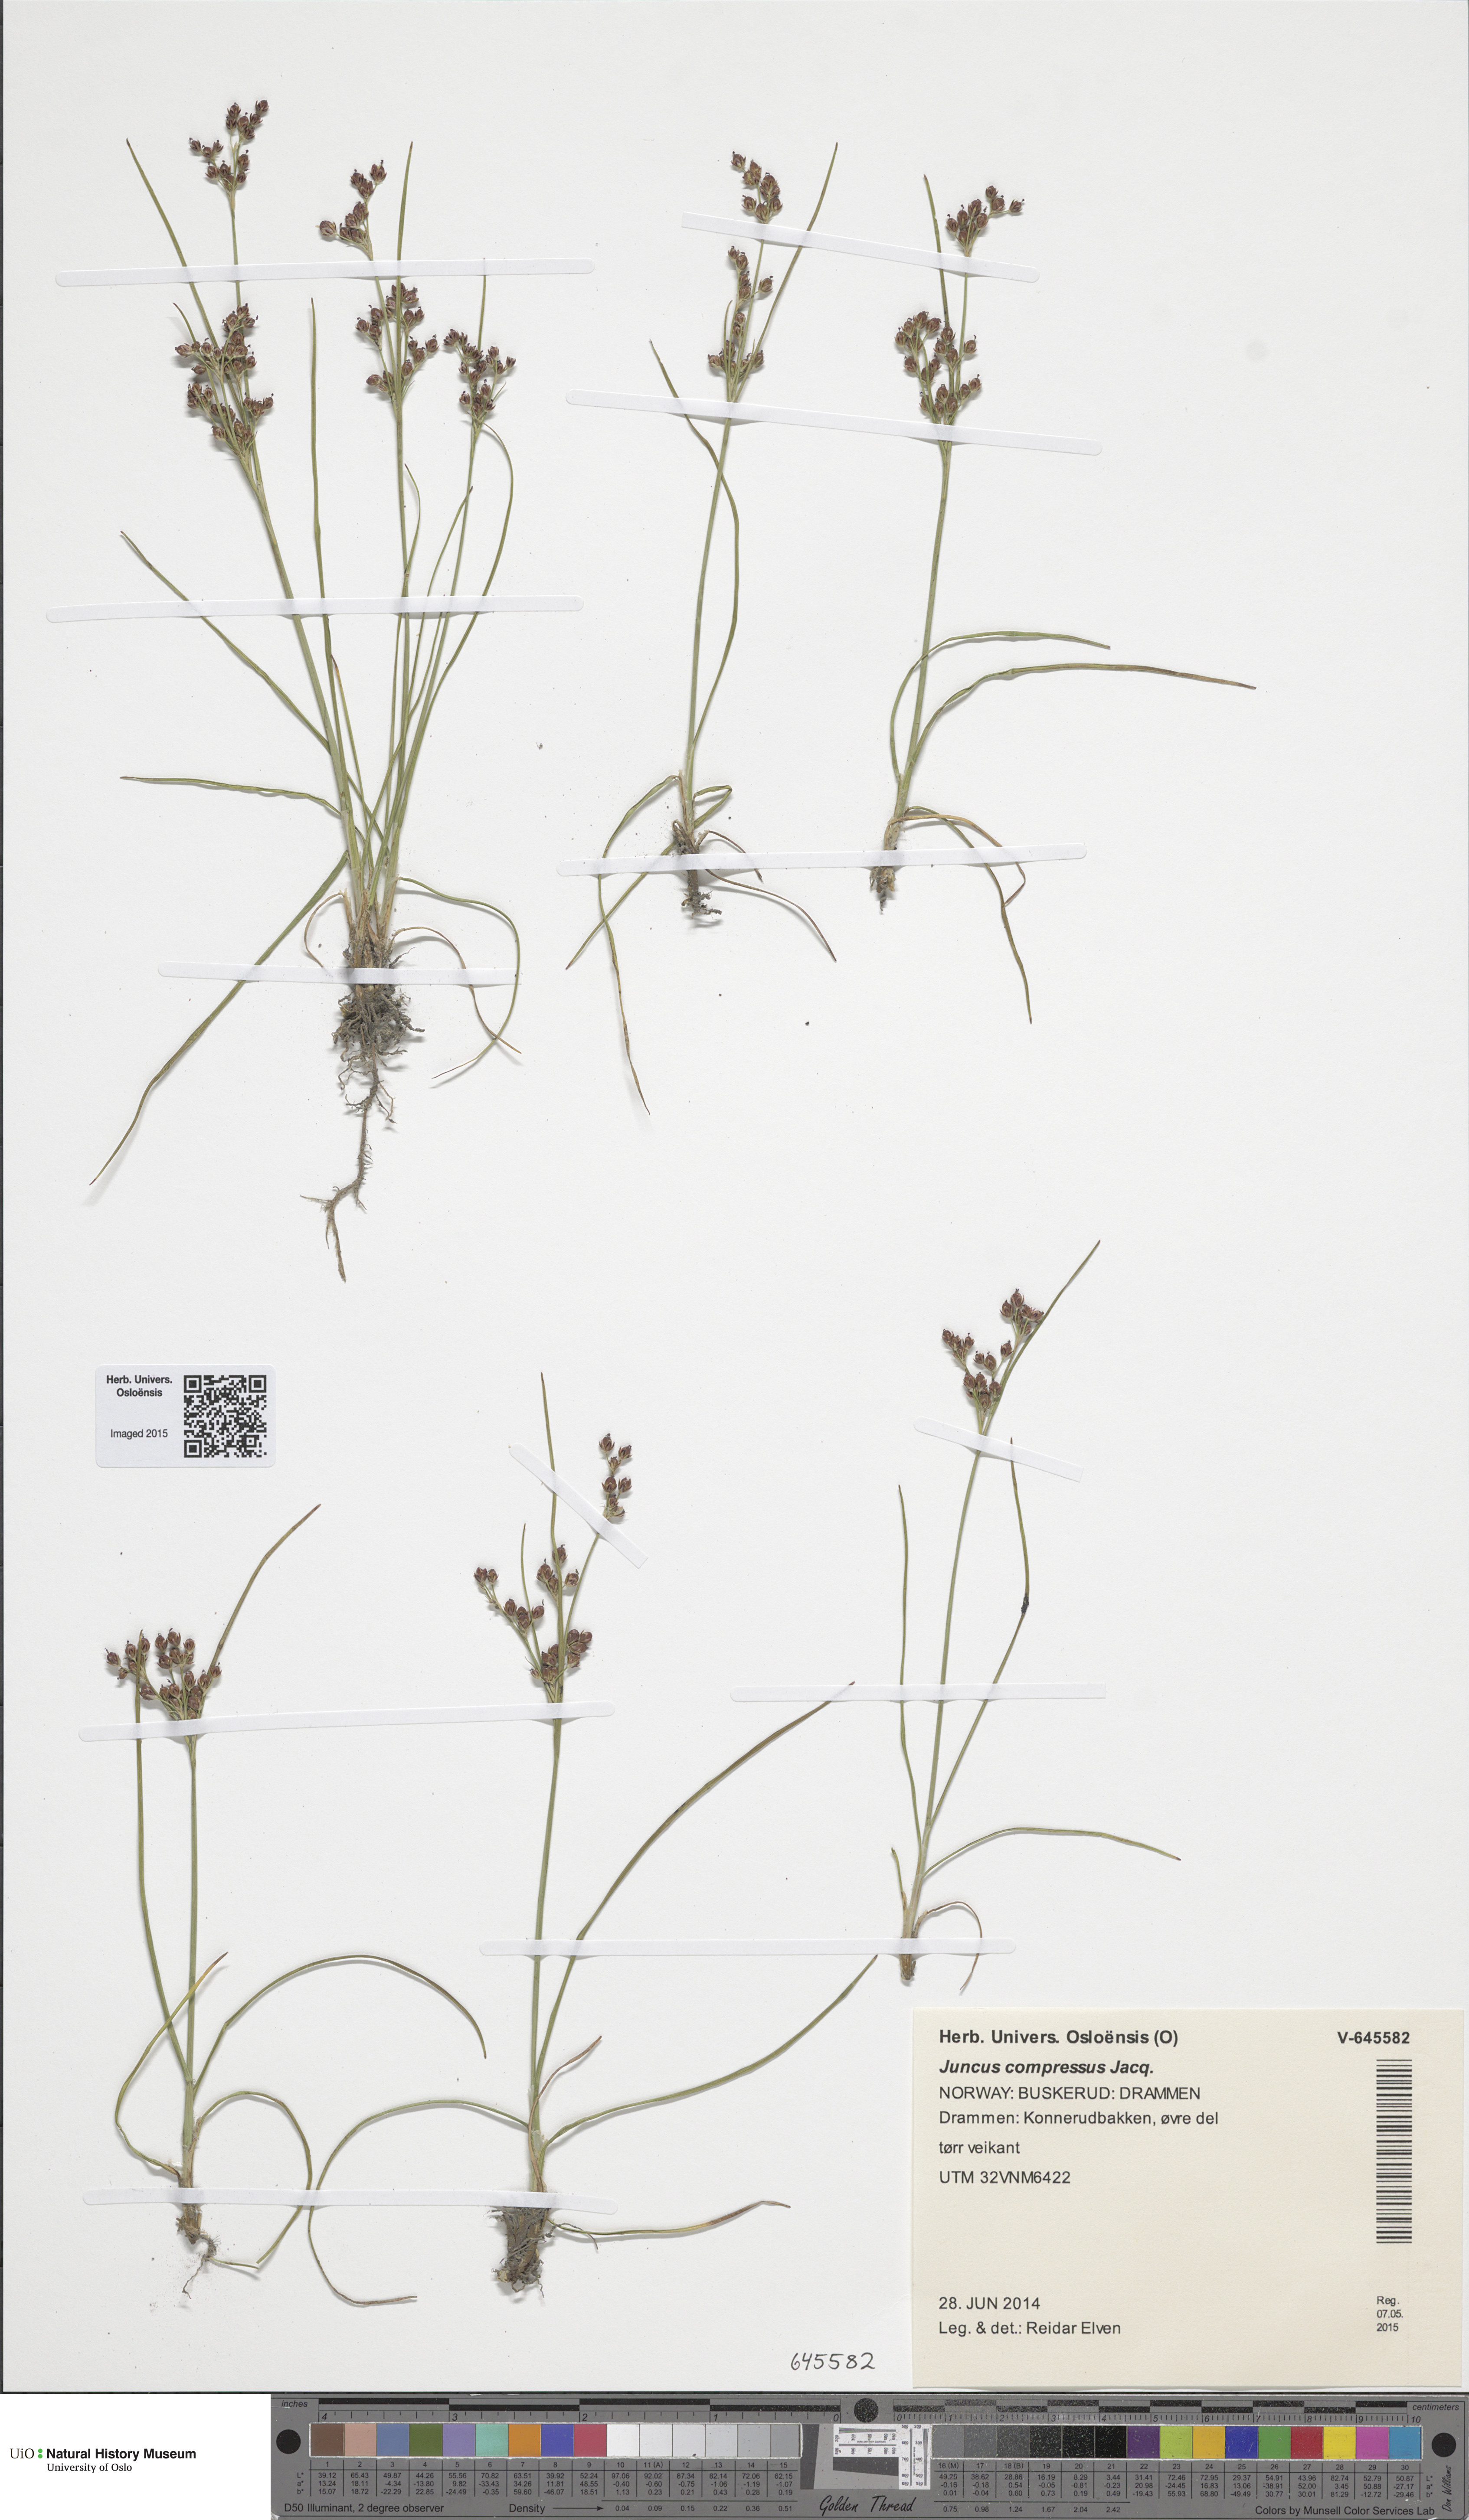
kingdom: Plantae
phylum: Tracheophyta
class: Liliopsida
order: Poales
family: Juncaceae
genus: Juncus
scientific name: Juncus compressus
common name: Round-fruited rush
